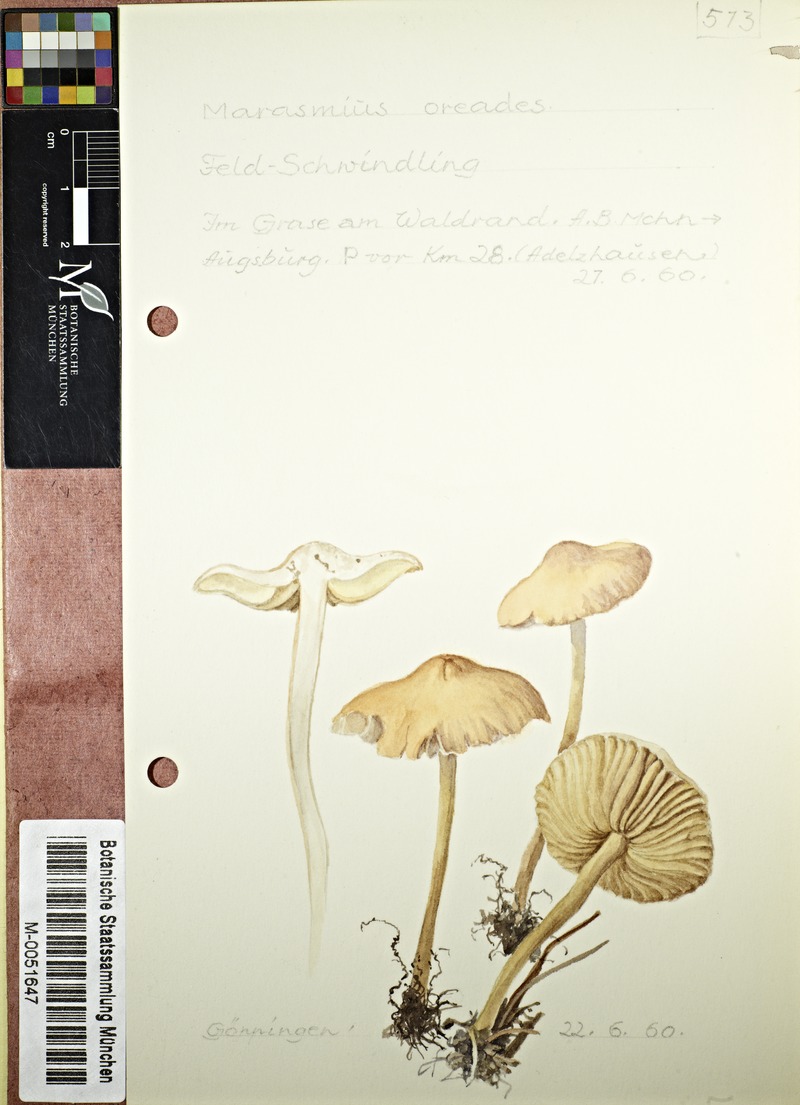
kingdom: Fungi
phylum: Basidiomycota
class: Agaricomycetes
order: Agaricales
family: Marasmiaceae
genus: Marasmius
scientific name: Marasmius oreades
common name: Fairy ring champignon
